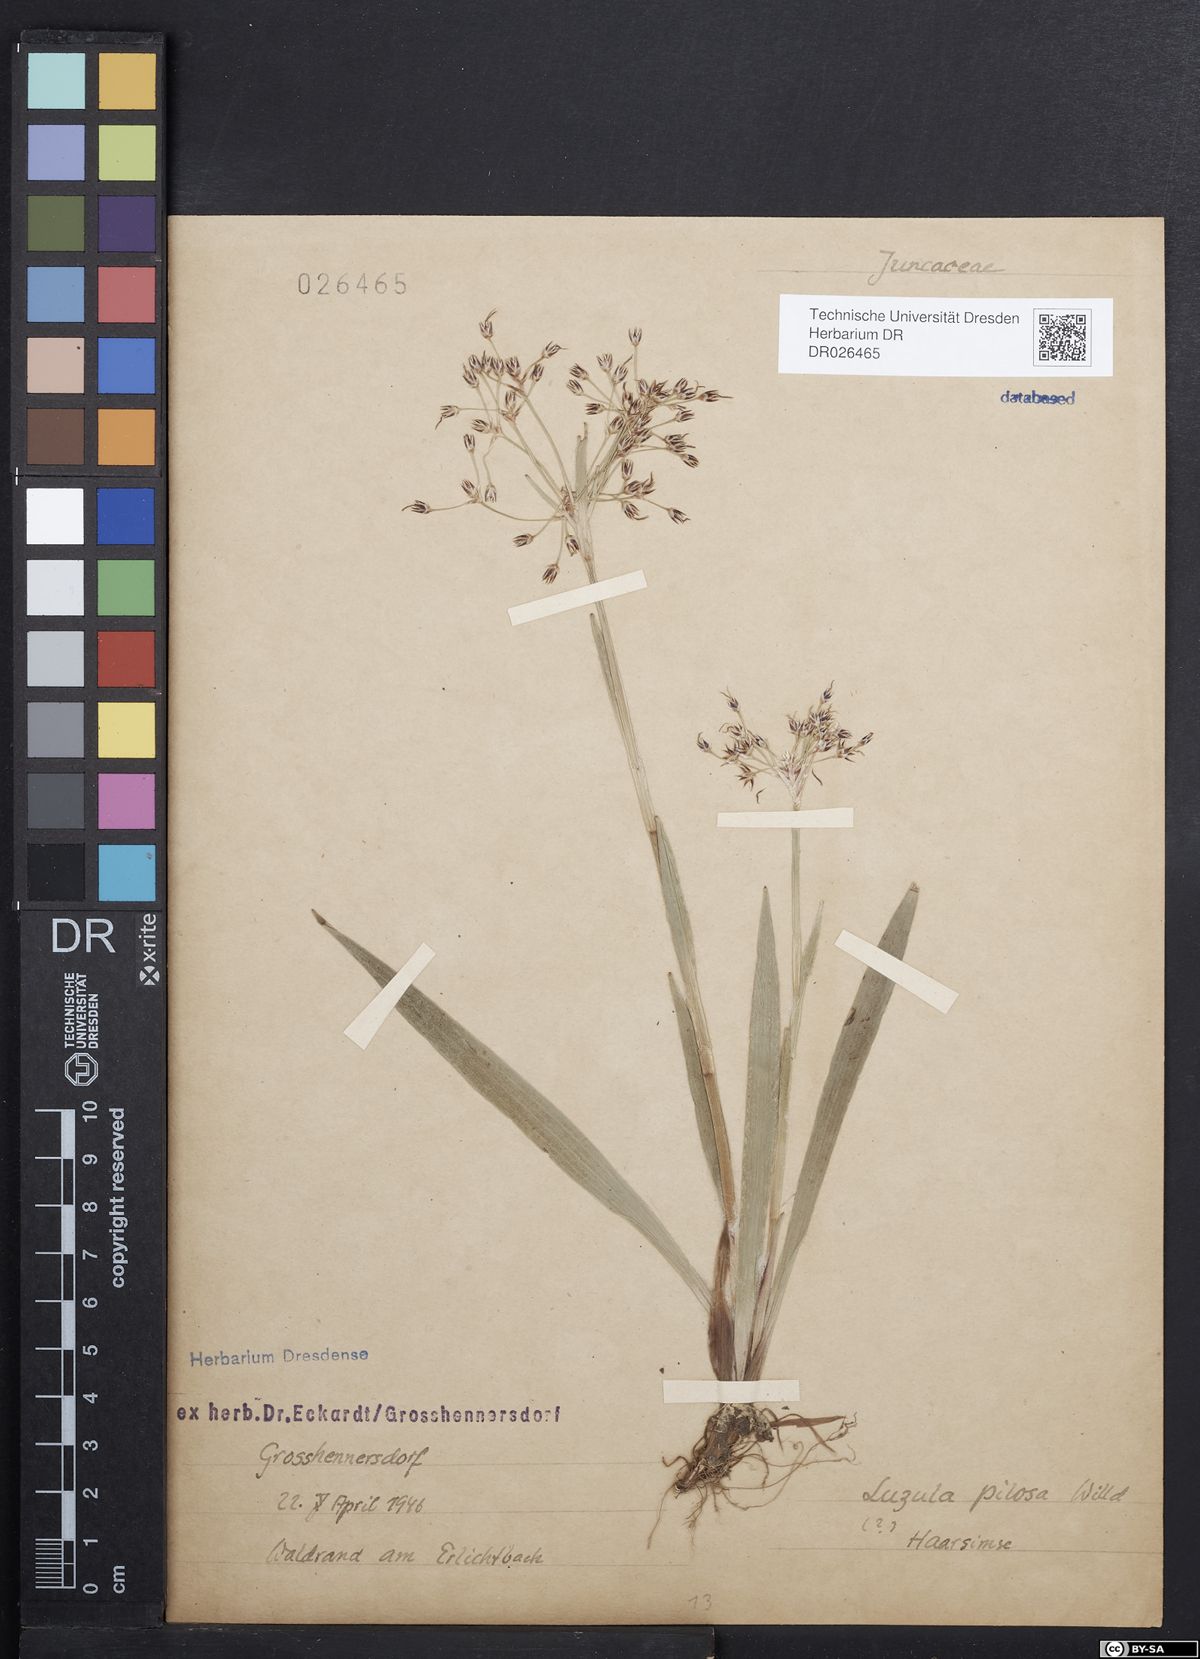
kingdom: Plantae
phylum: Tracheophyta
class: Liliopsida
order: Poales
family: Juncaceae
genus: Luzula
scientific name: Luzula pilosa
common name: Hairy wood-rush
